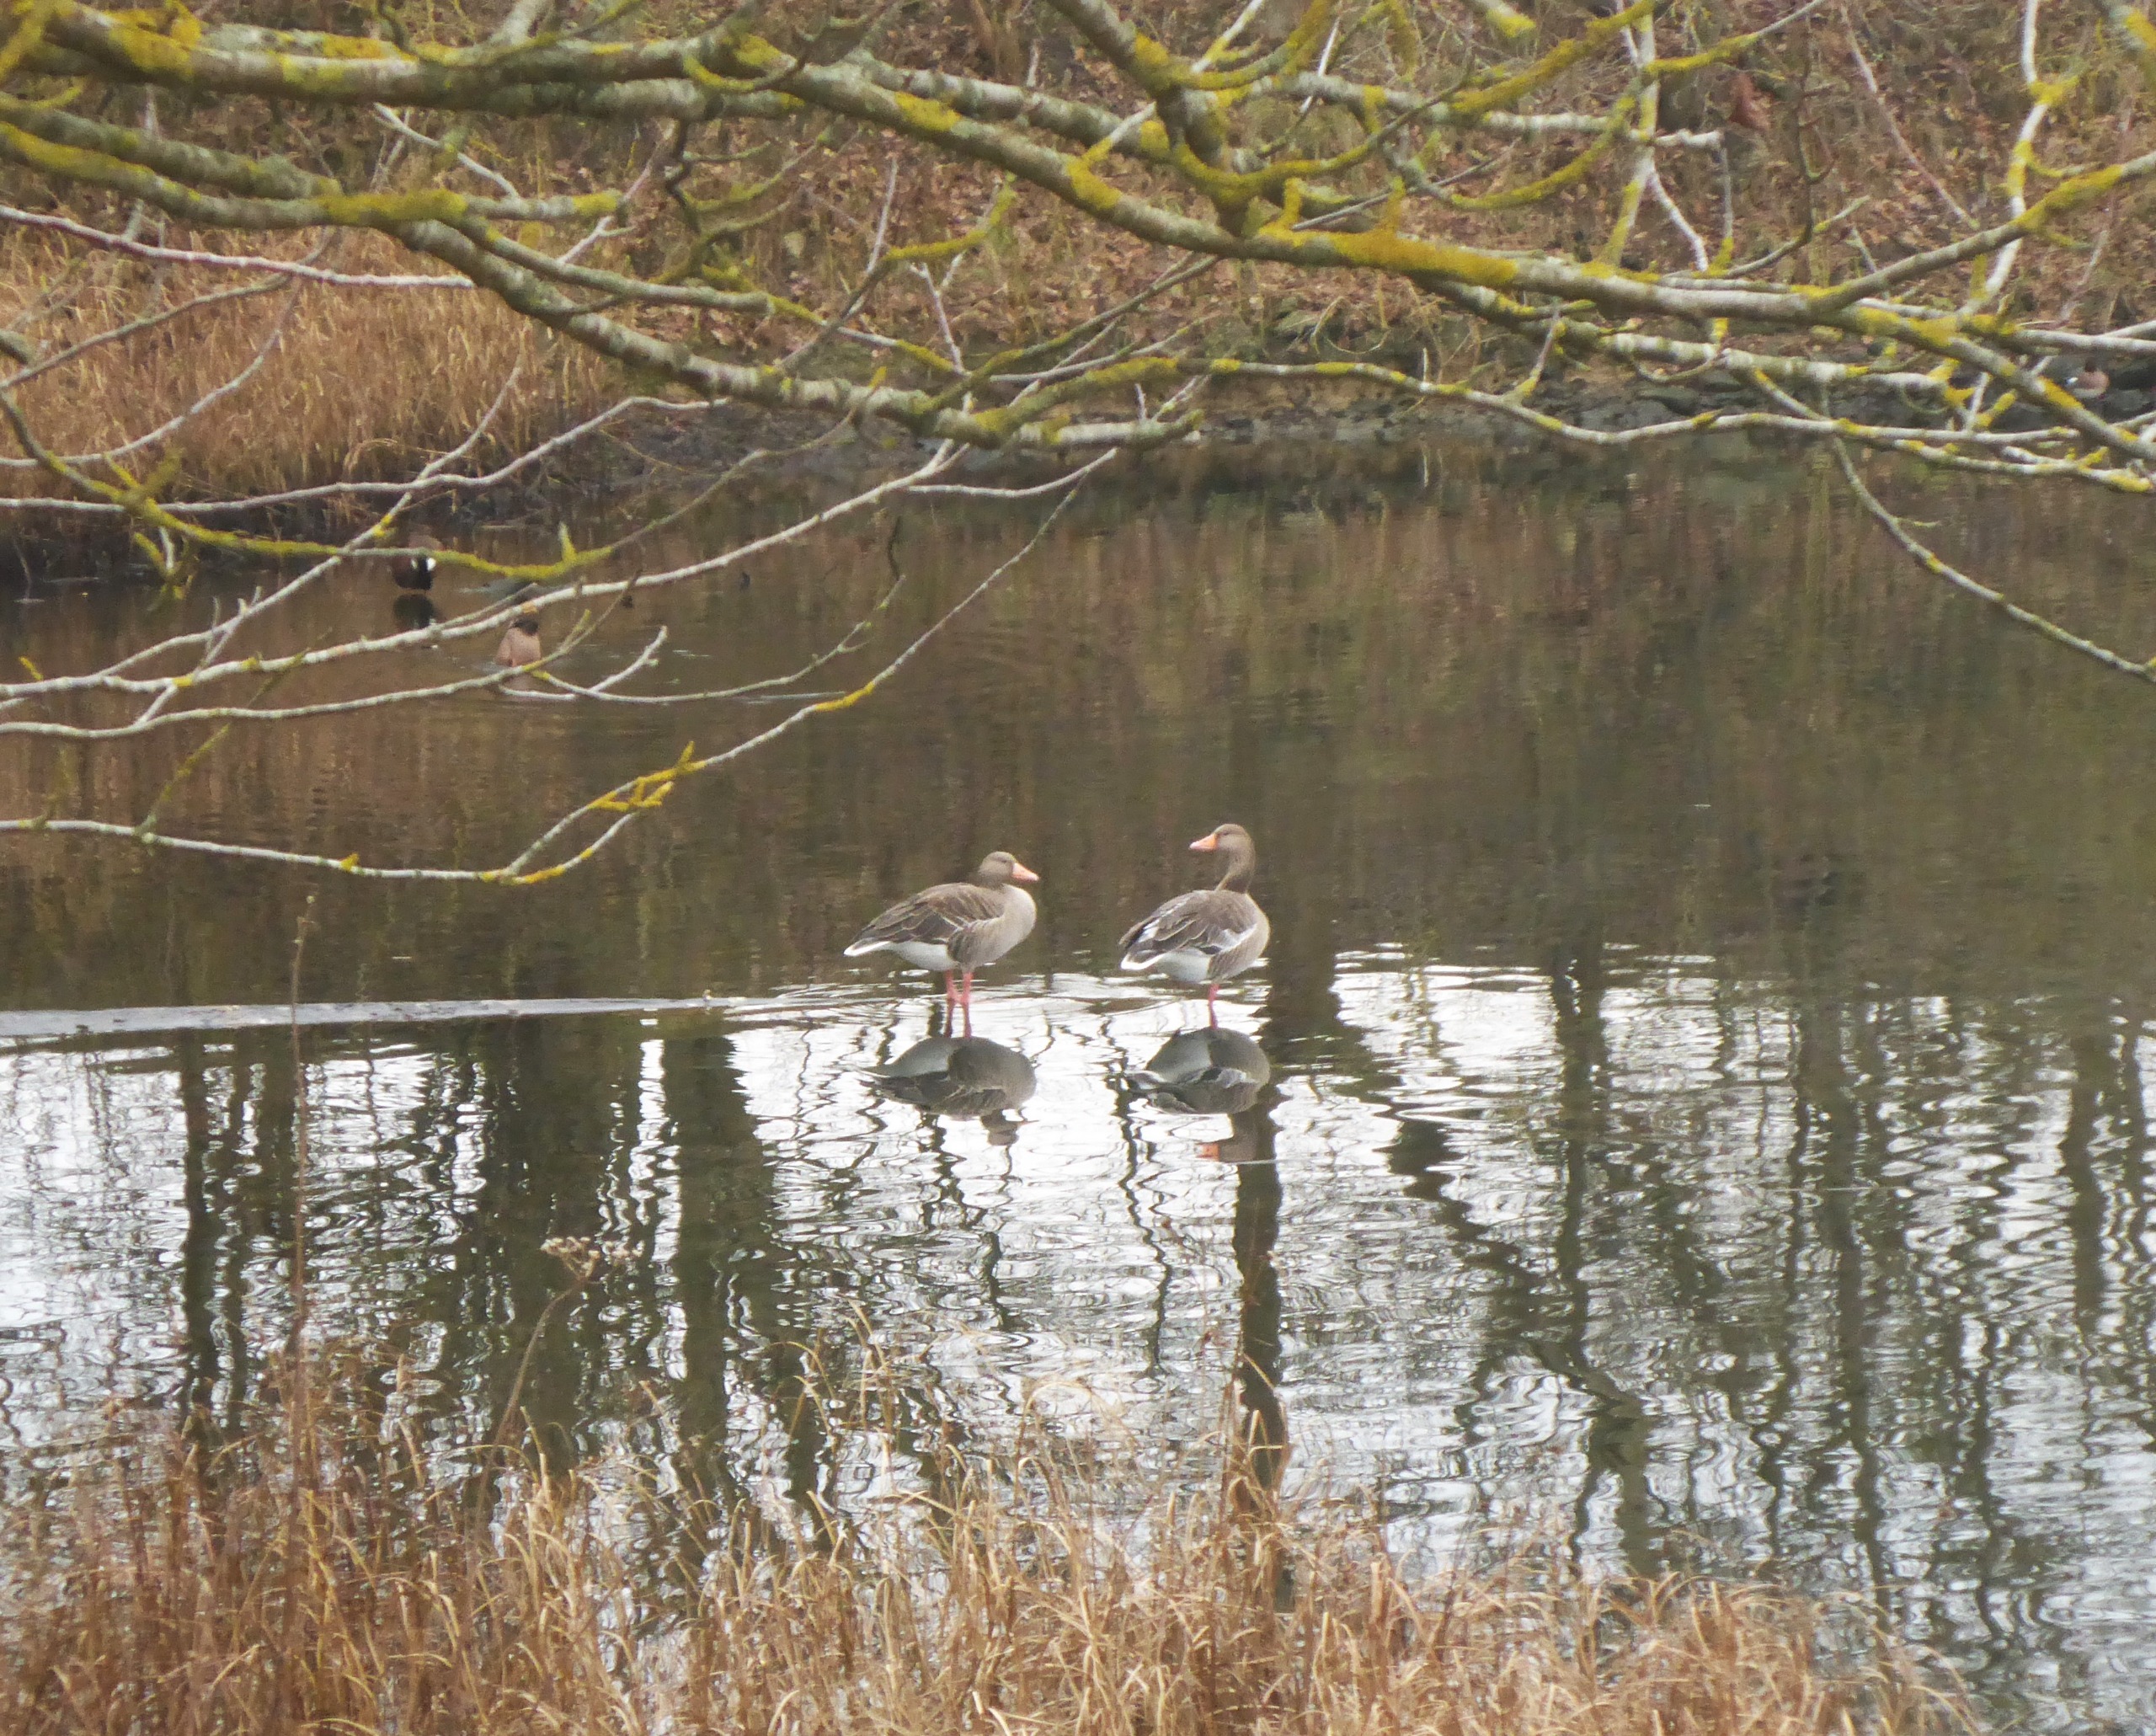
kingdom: Animalia
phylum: Chordata
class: Aves
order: Anseriformes
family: Anatidae
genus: Anser
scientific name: Anser anser
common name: Grågås
